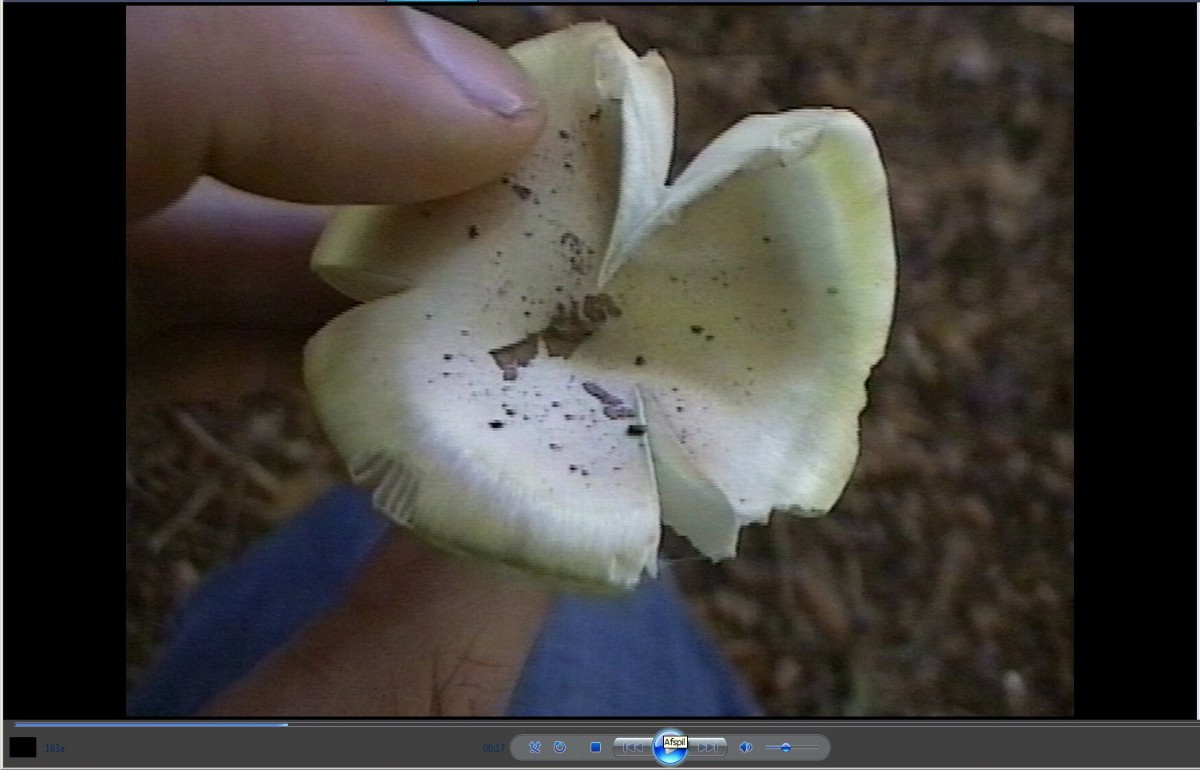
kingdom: Fungi
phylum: Basidiomycota
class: Agaricomycetes
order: Agaricales
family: Amanitaceae
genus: Amanita
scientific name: Amanita phalloides
